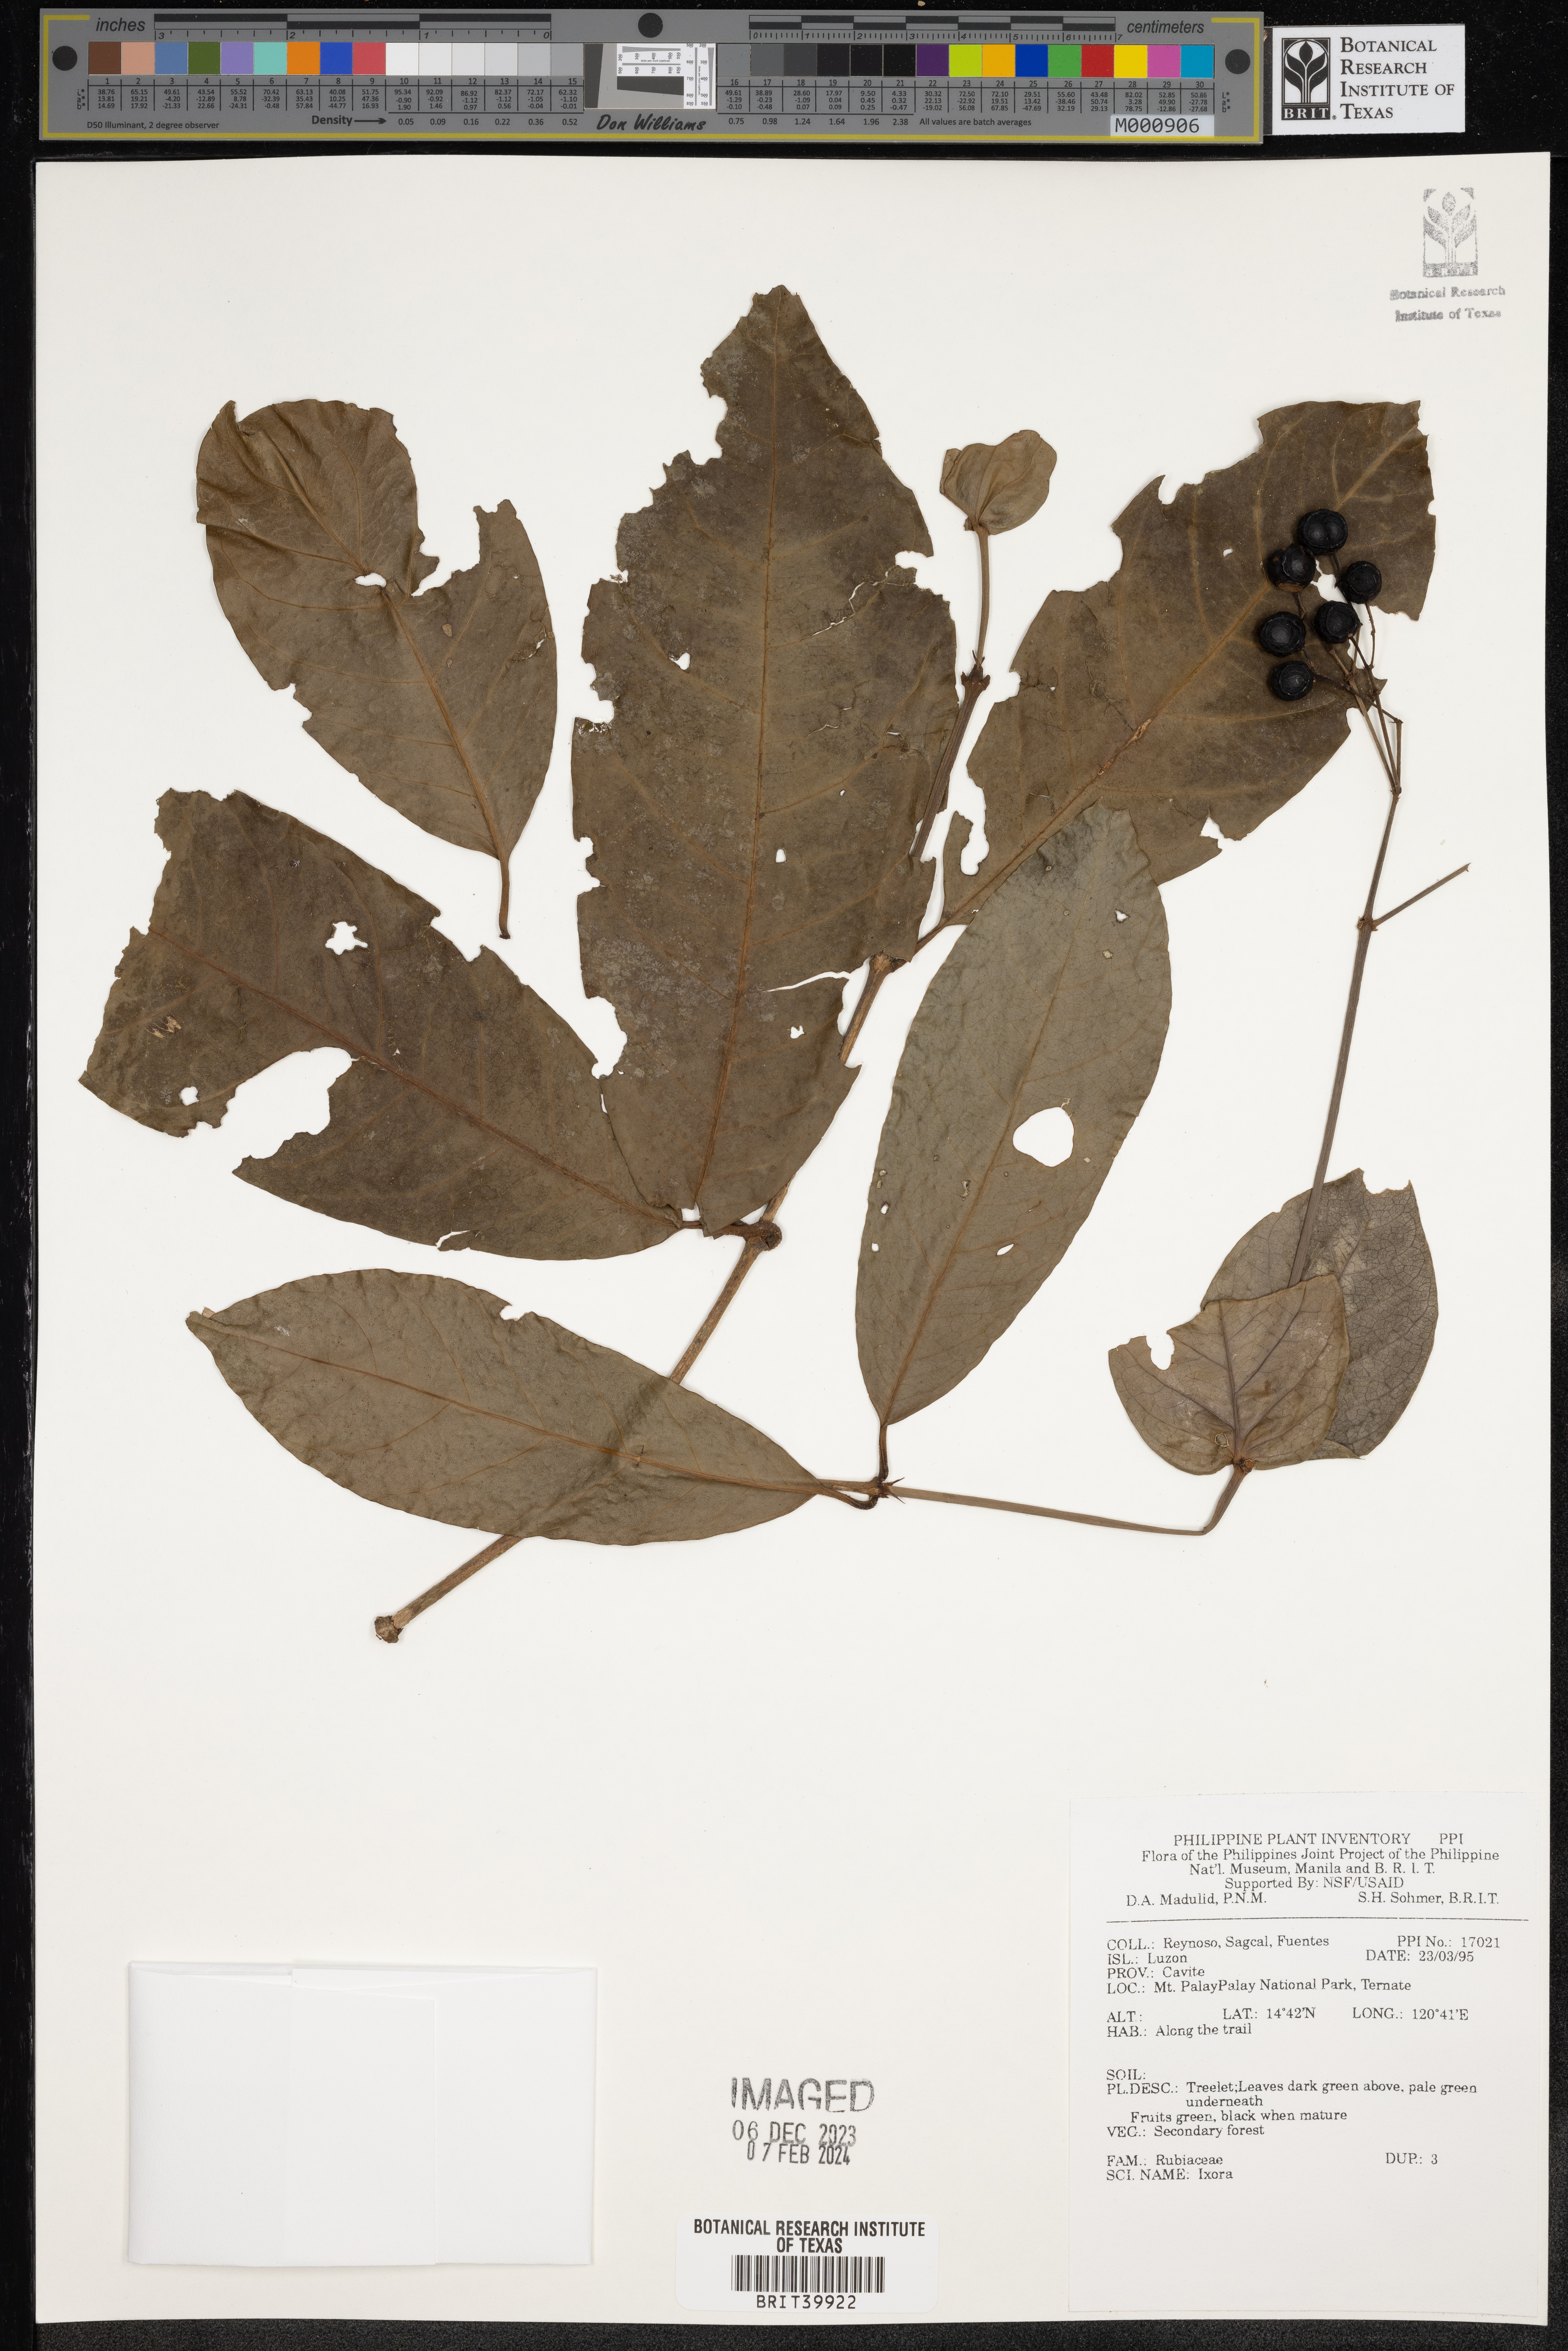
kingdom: Plantae
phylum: Tracheophyta
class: Magnoliopsida
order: Gentianales
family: Rubiaceae
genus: Ixora
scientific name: Ixora
